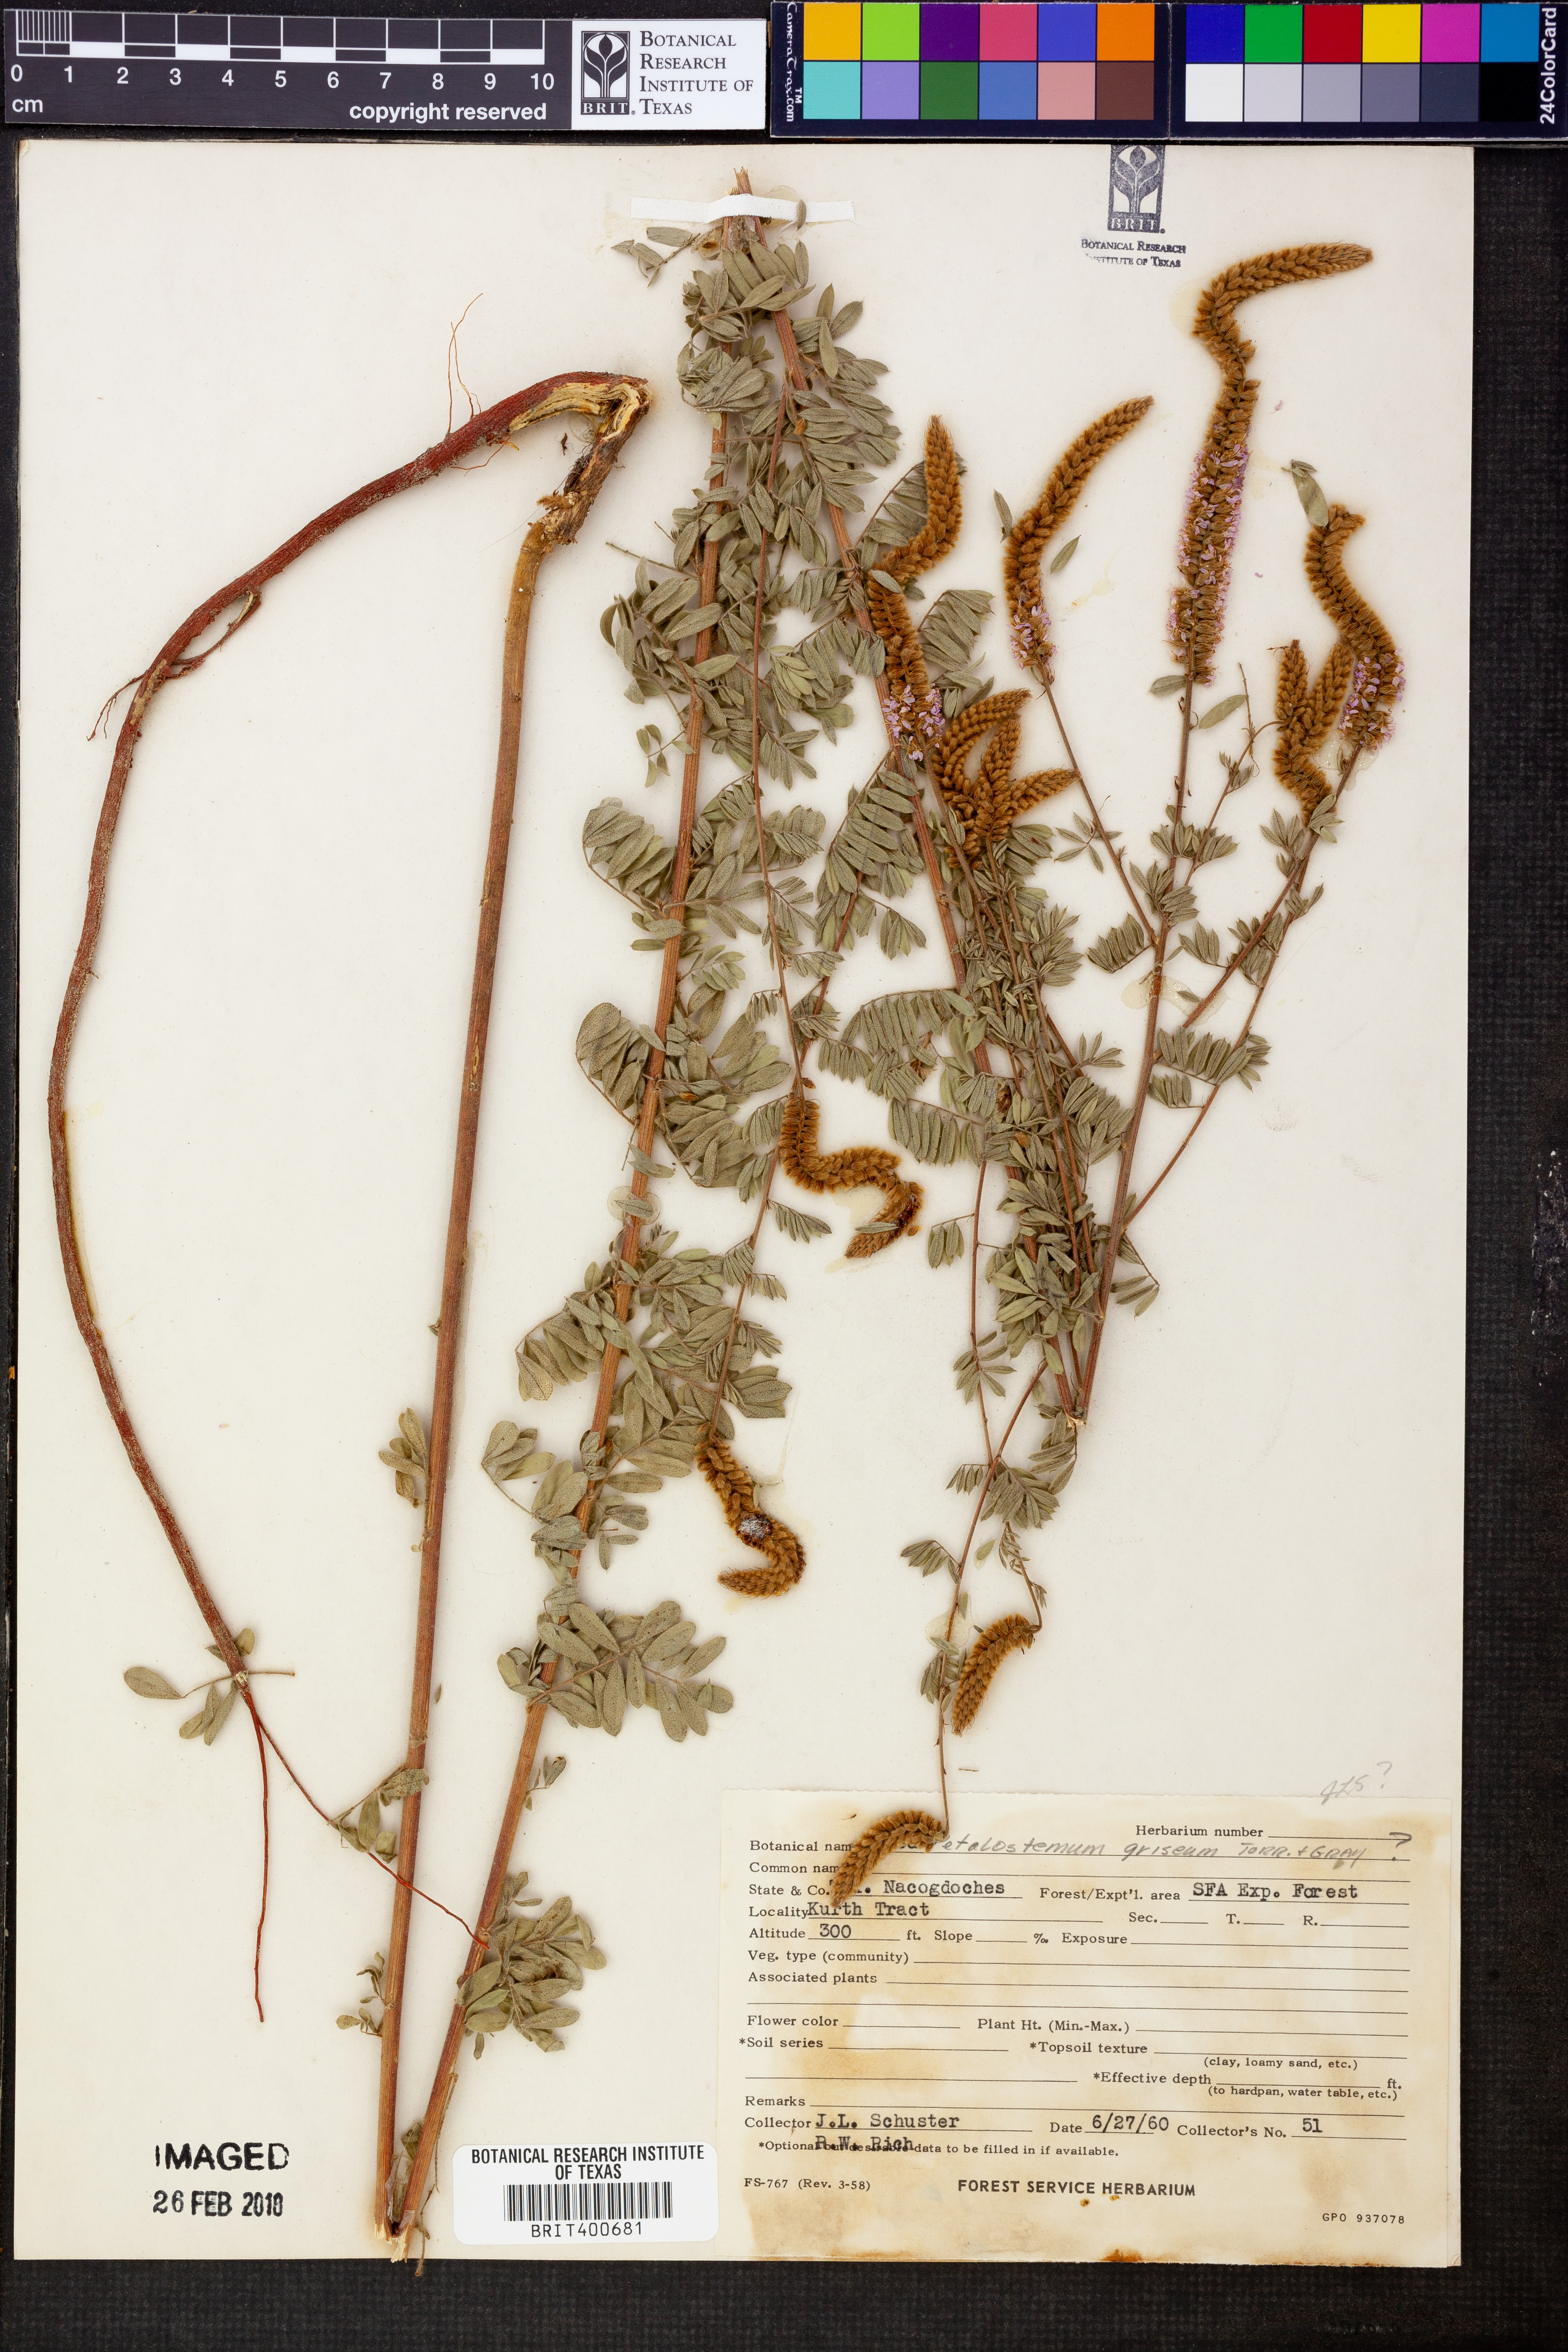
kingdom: Plantae
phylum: Tracheophyta
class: Magnoliopsida
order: Fabales
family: Fabaceae
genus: Dalea
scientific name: Dalea villosa
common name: Silky prairie-clover
